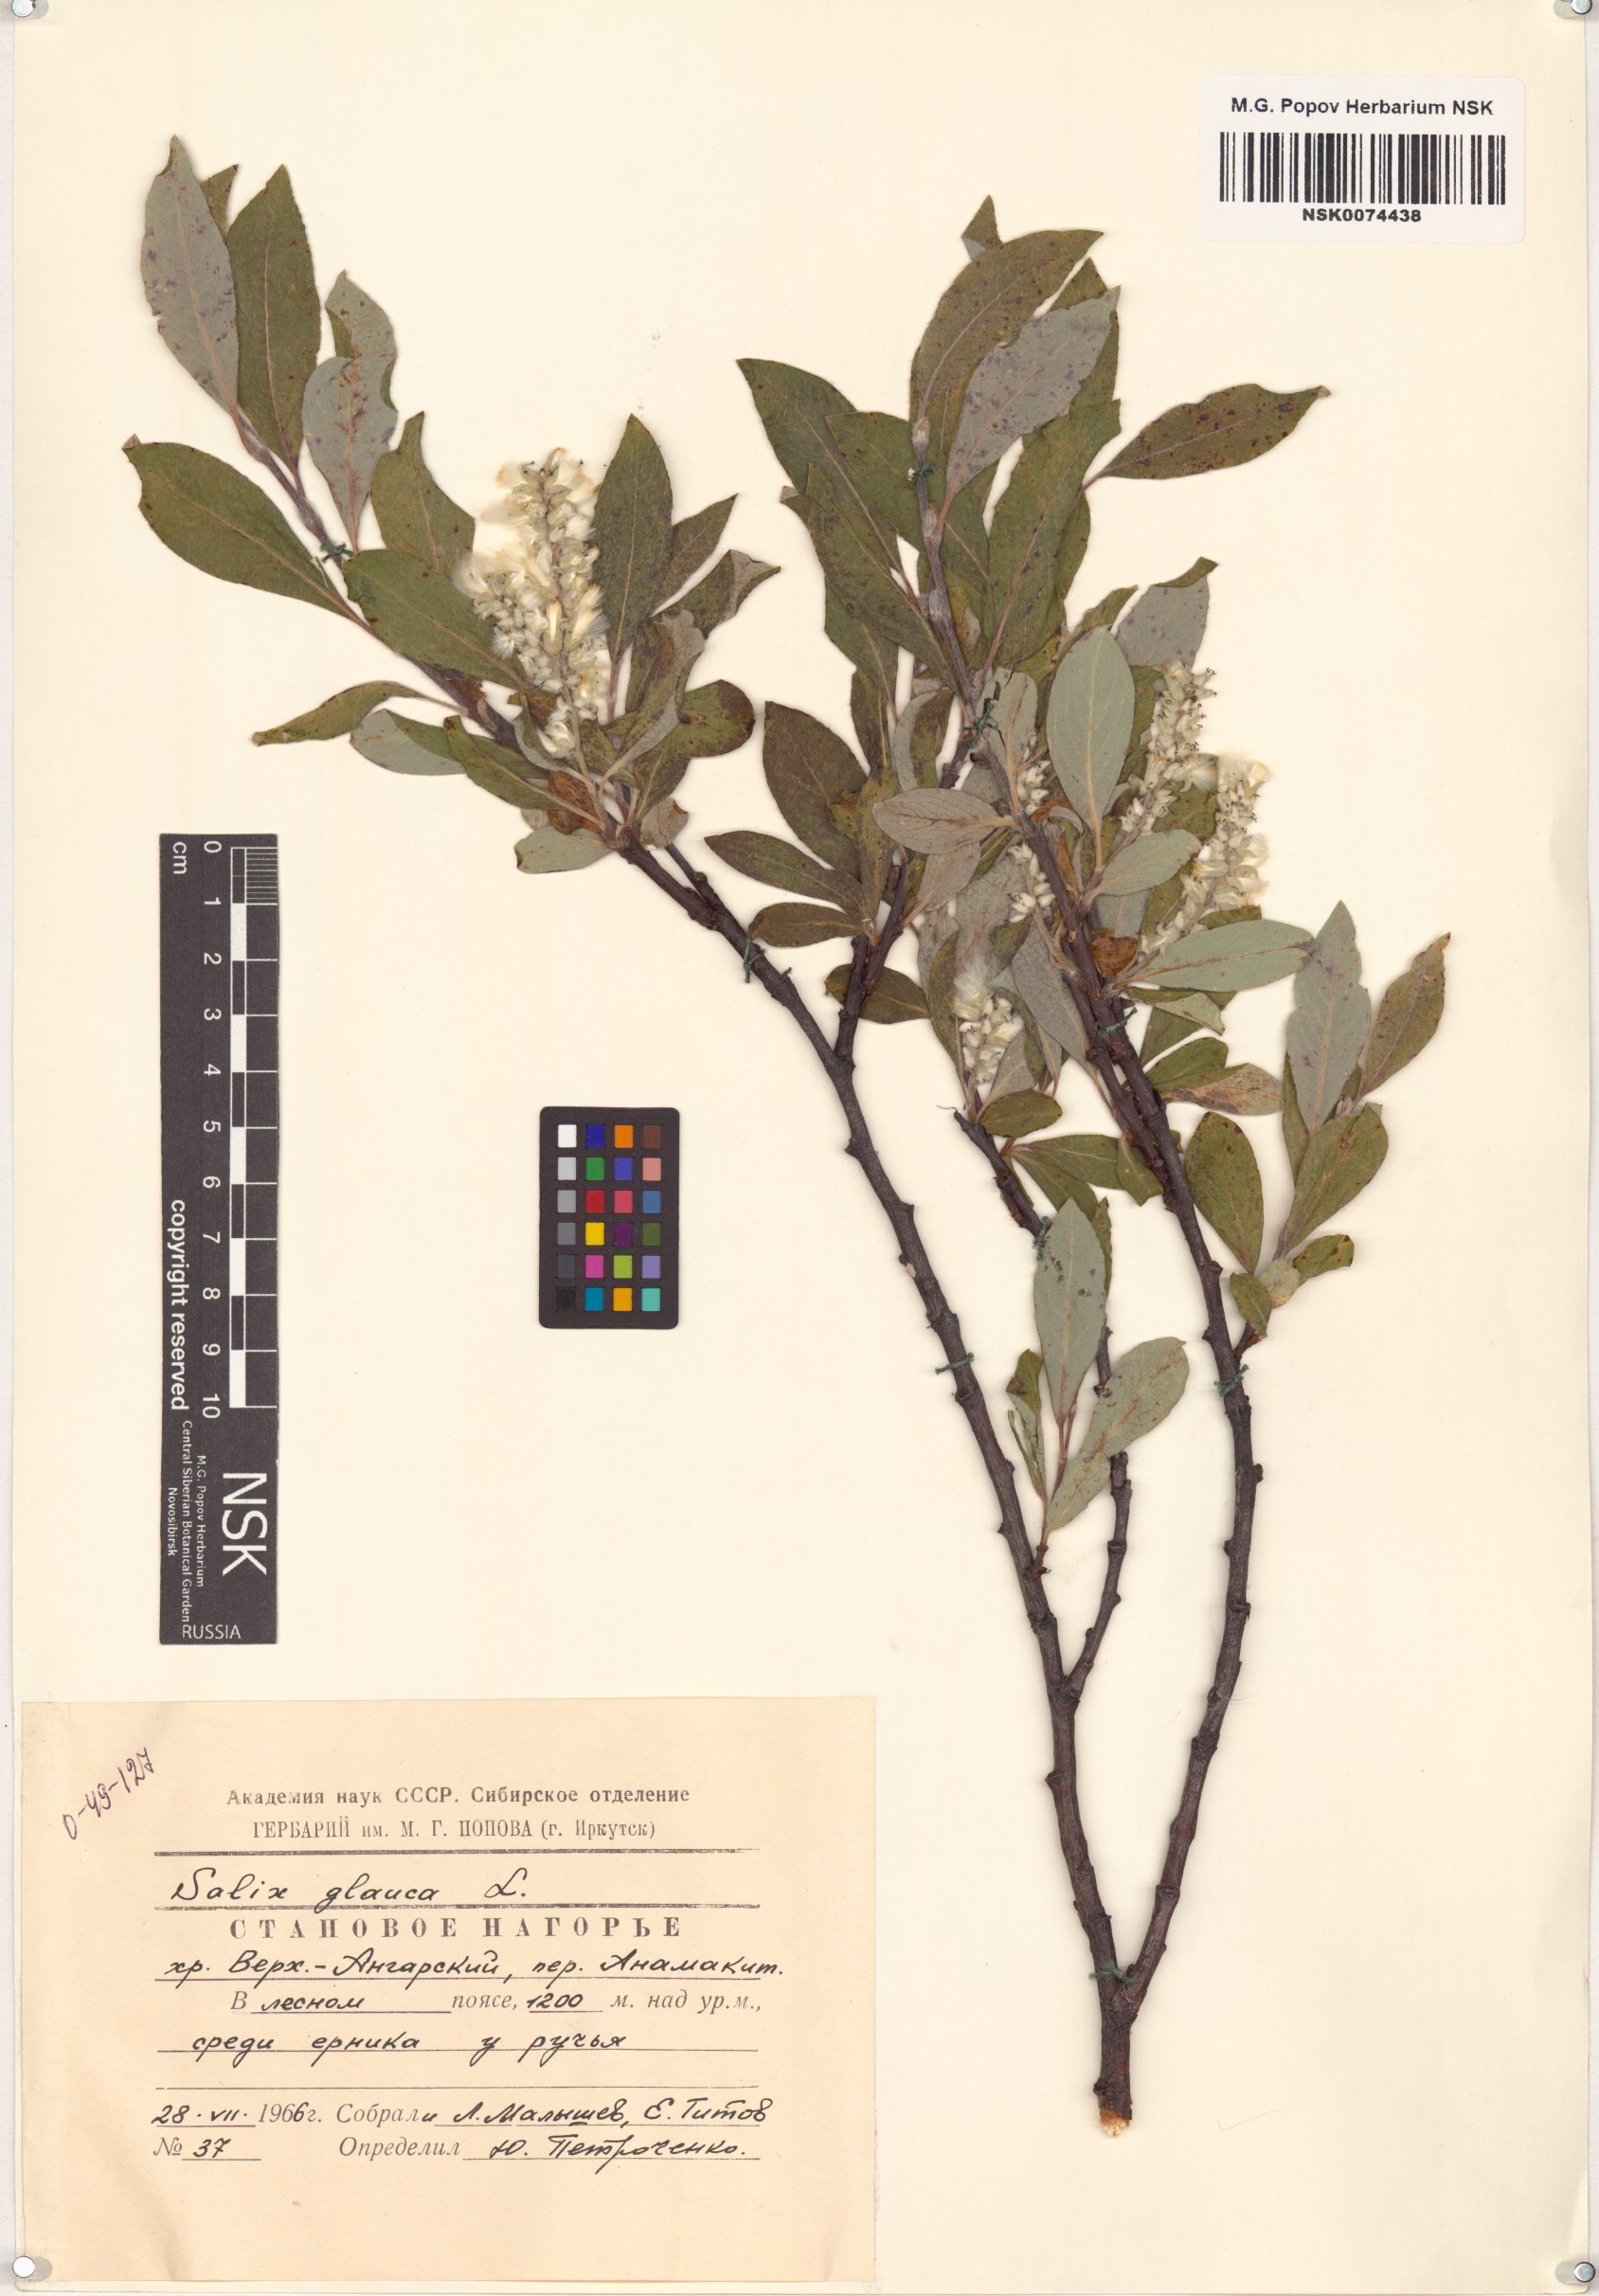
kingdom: Plantae
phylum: Tracheophyta
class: Magnoliopsida
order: Malpighiales
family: Salicaceae
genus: Salix
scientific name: Salix glauca
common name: Glaucous willow
